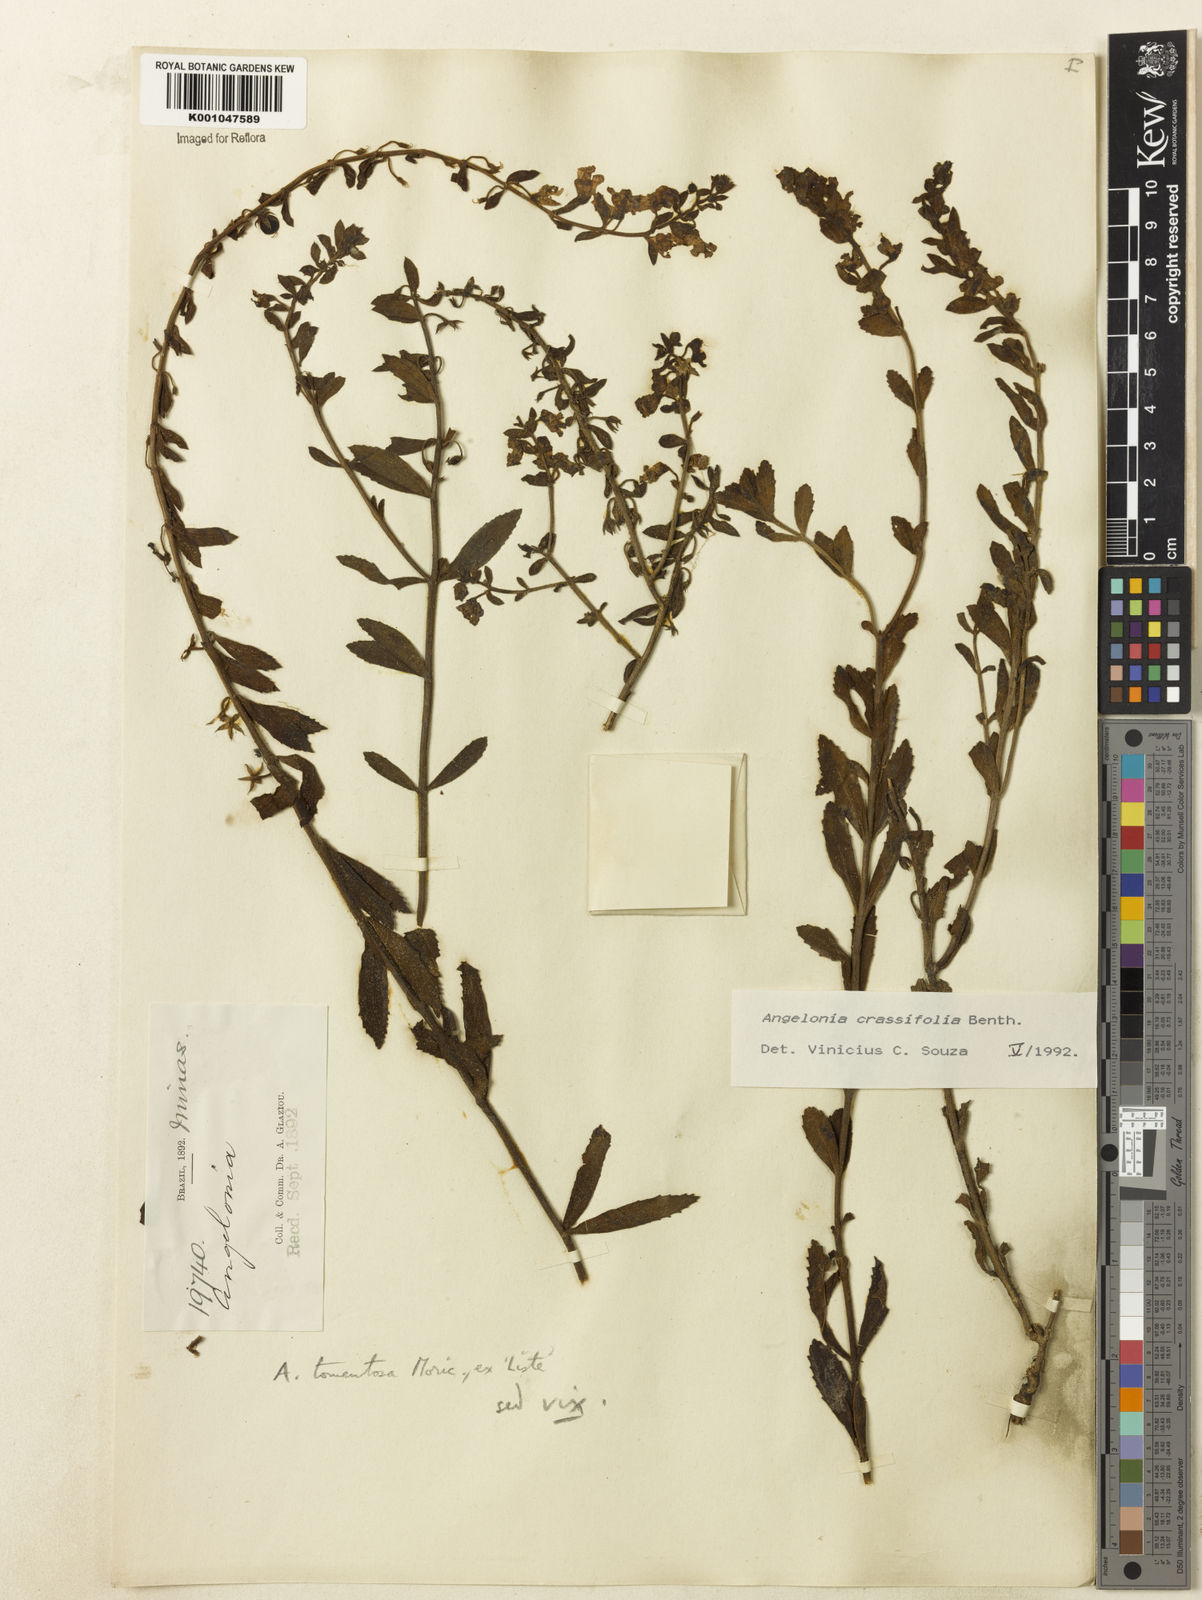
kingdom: Plantae
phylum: Tracheophyta
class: Magnoliopsida
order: Lamiales
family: Plantaginaceae
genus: Angelonia
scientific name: Angelonia crassifolia
